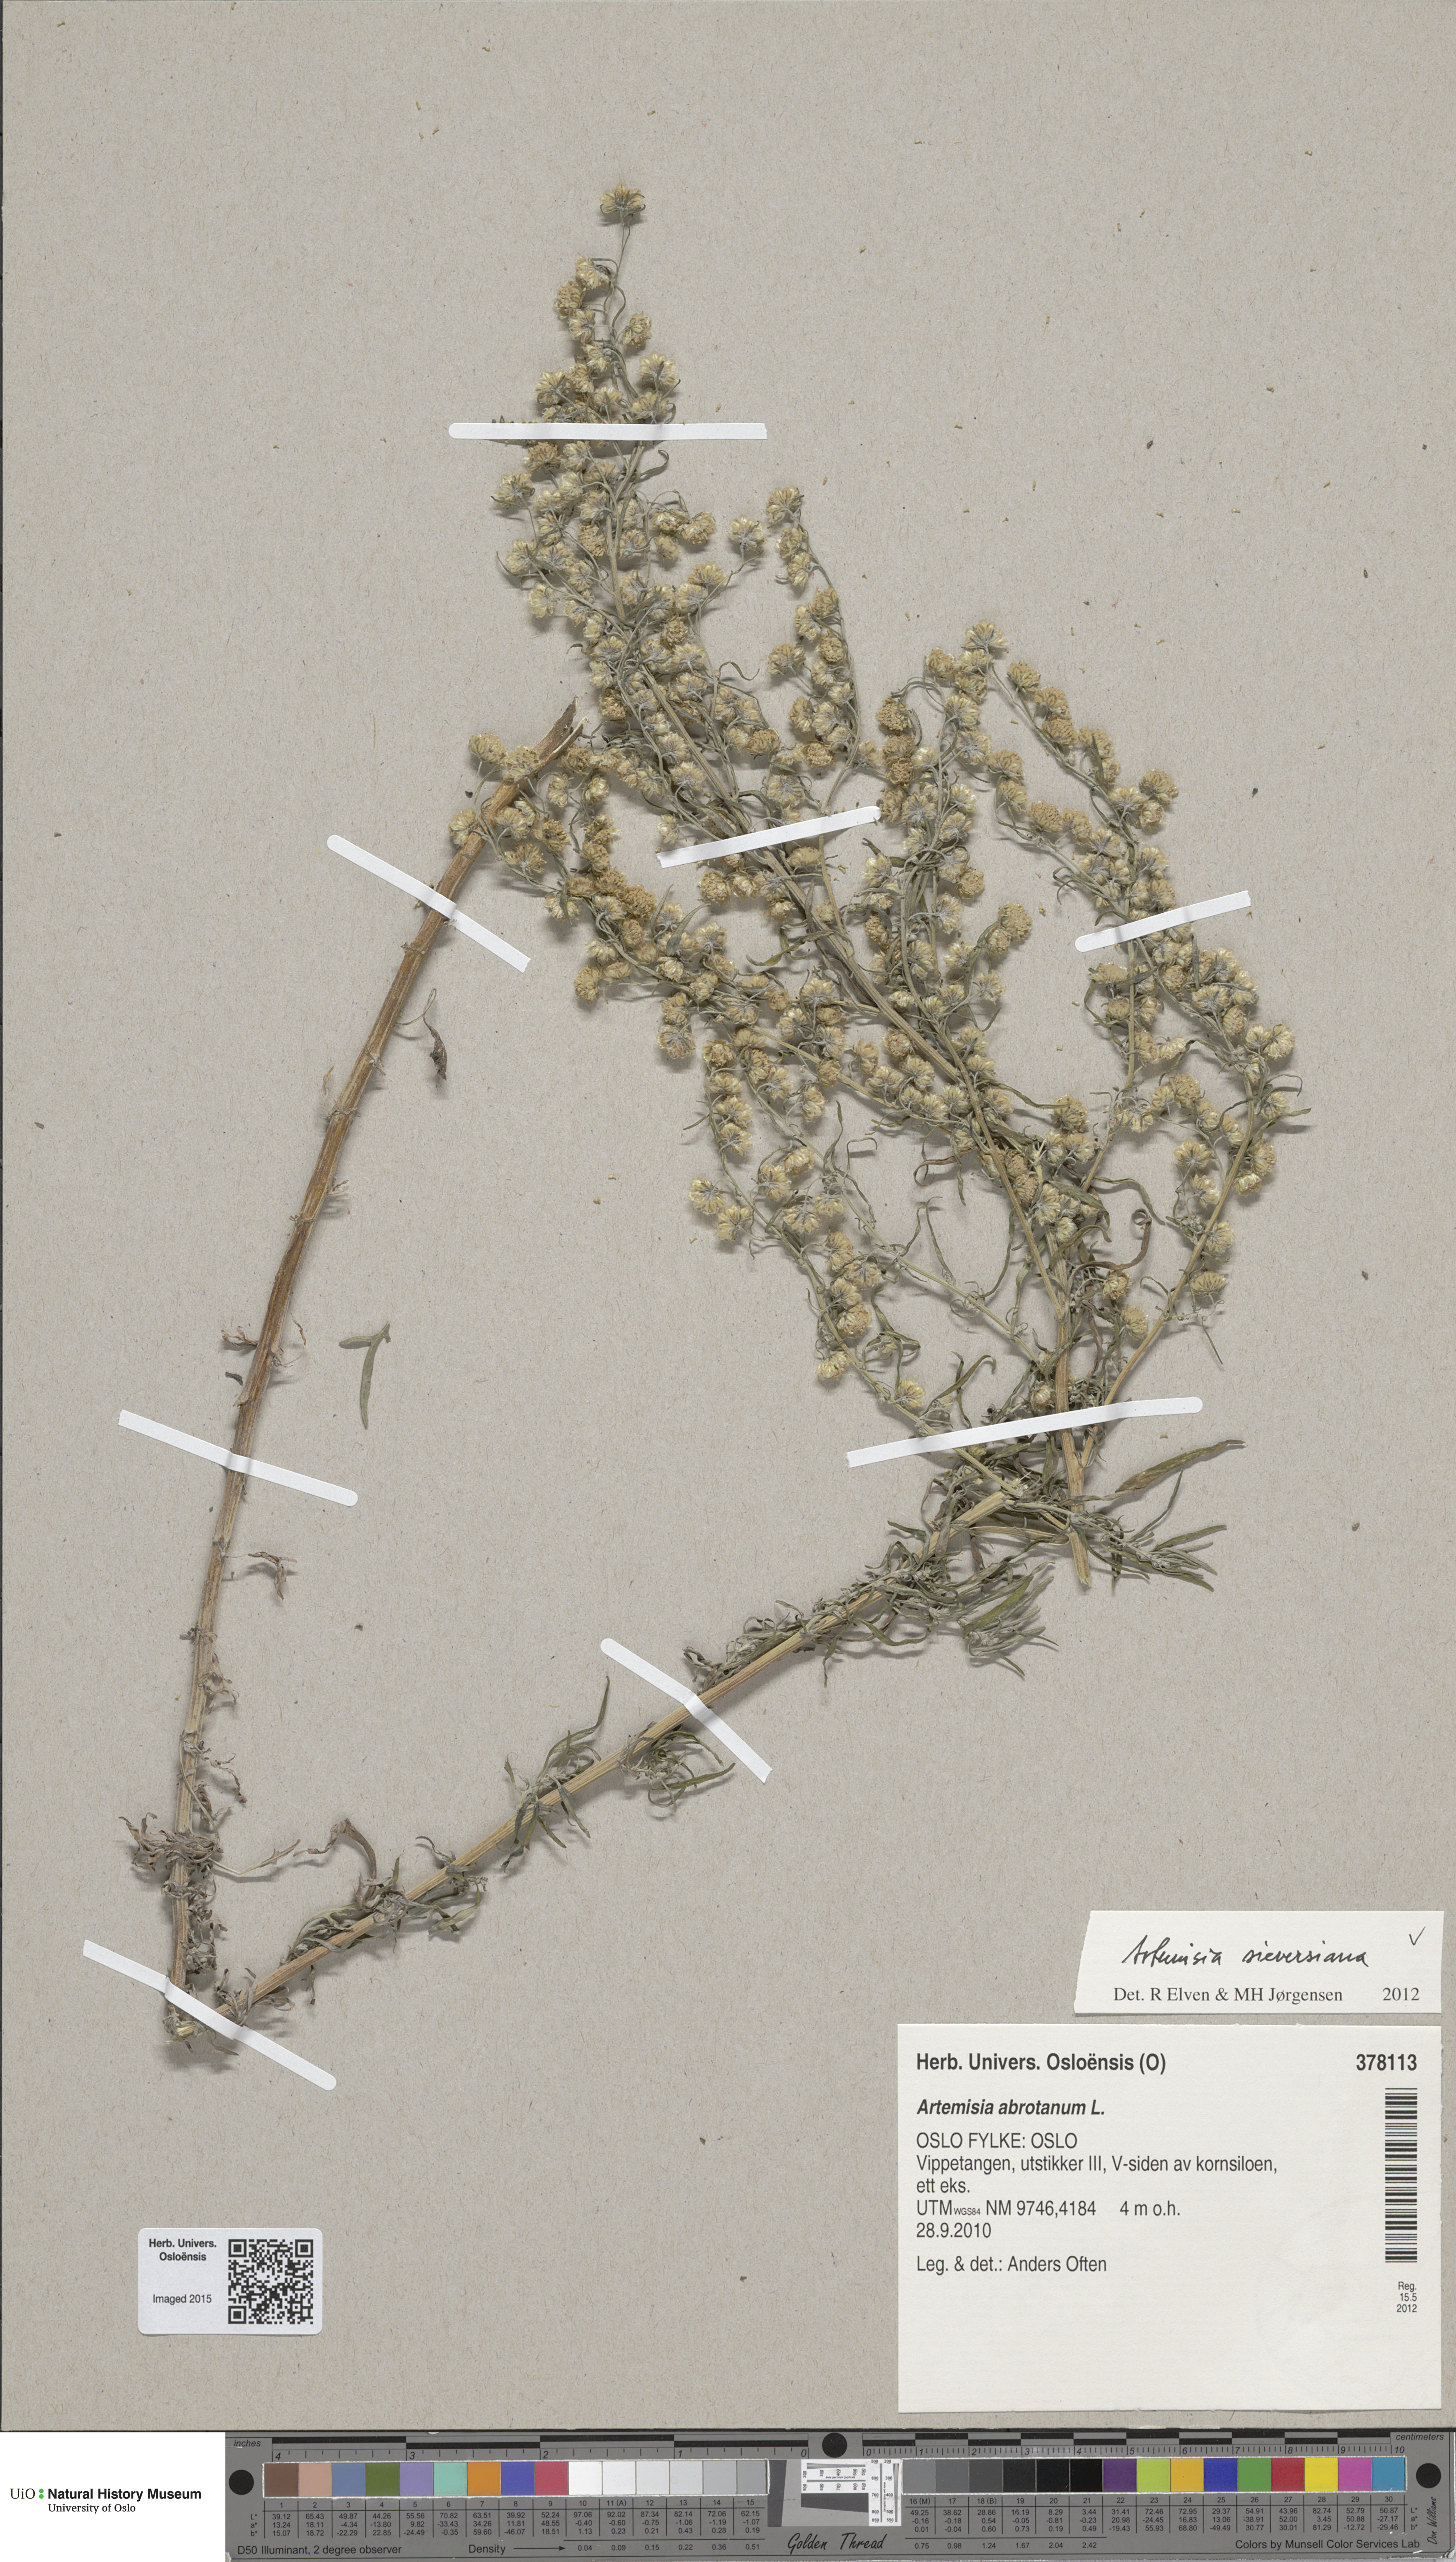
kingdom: Plantae
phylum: Tracheophyta
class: Magnoliopsida
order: Asterales
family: Asteraceae
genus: Artemisia
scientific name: Artemisia sieversiana
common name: Sieversian wormwood
